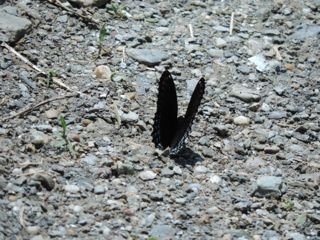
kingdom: Animalia
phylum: Arthropoda
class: Insecta
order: Lepidoptera
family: Nymphalidae
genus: Limenitis
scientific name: Limenitis astyanax
